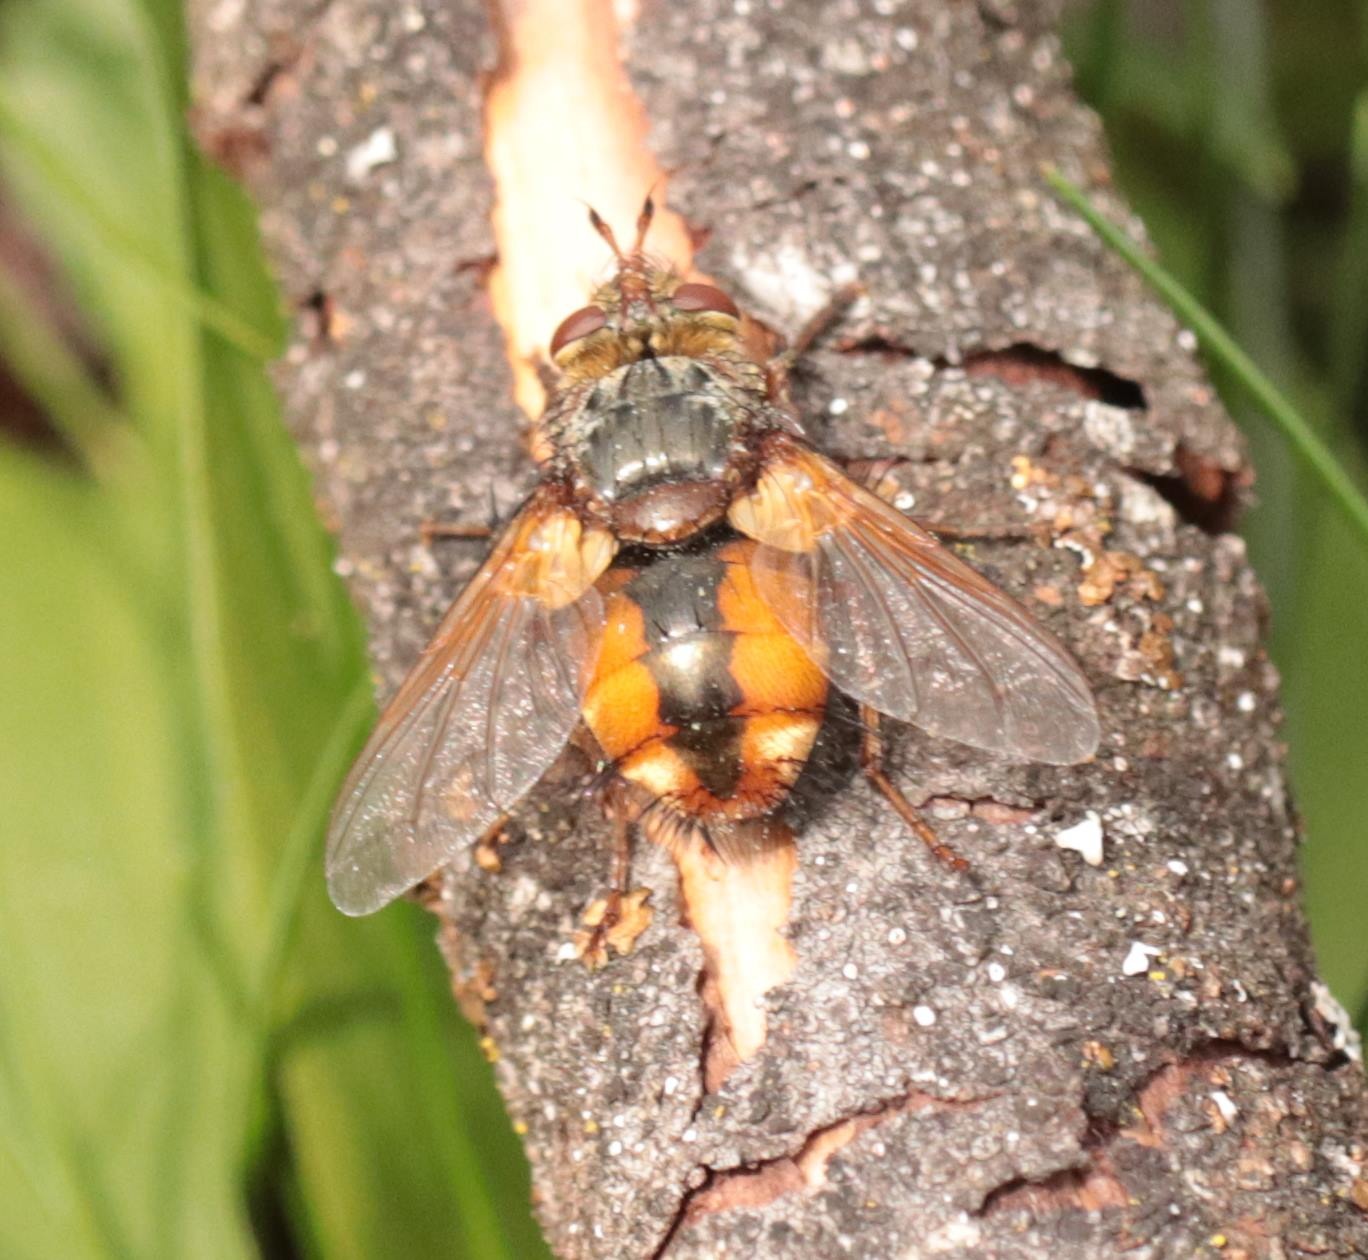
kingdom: Animalia
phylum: Arthropoda
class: Insecta
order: Diptera
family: Tachinidae
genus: Tachina
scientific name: Tachina fera
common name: Mellemfluen oskar
